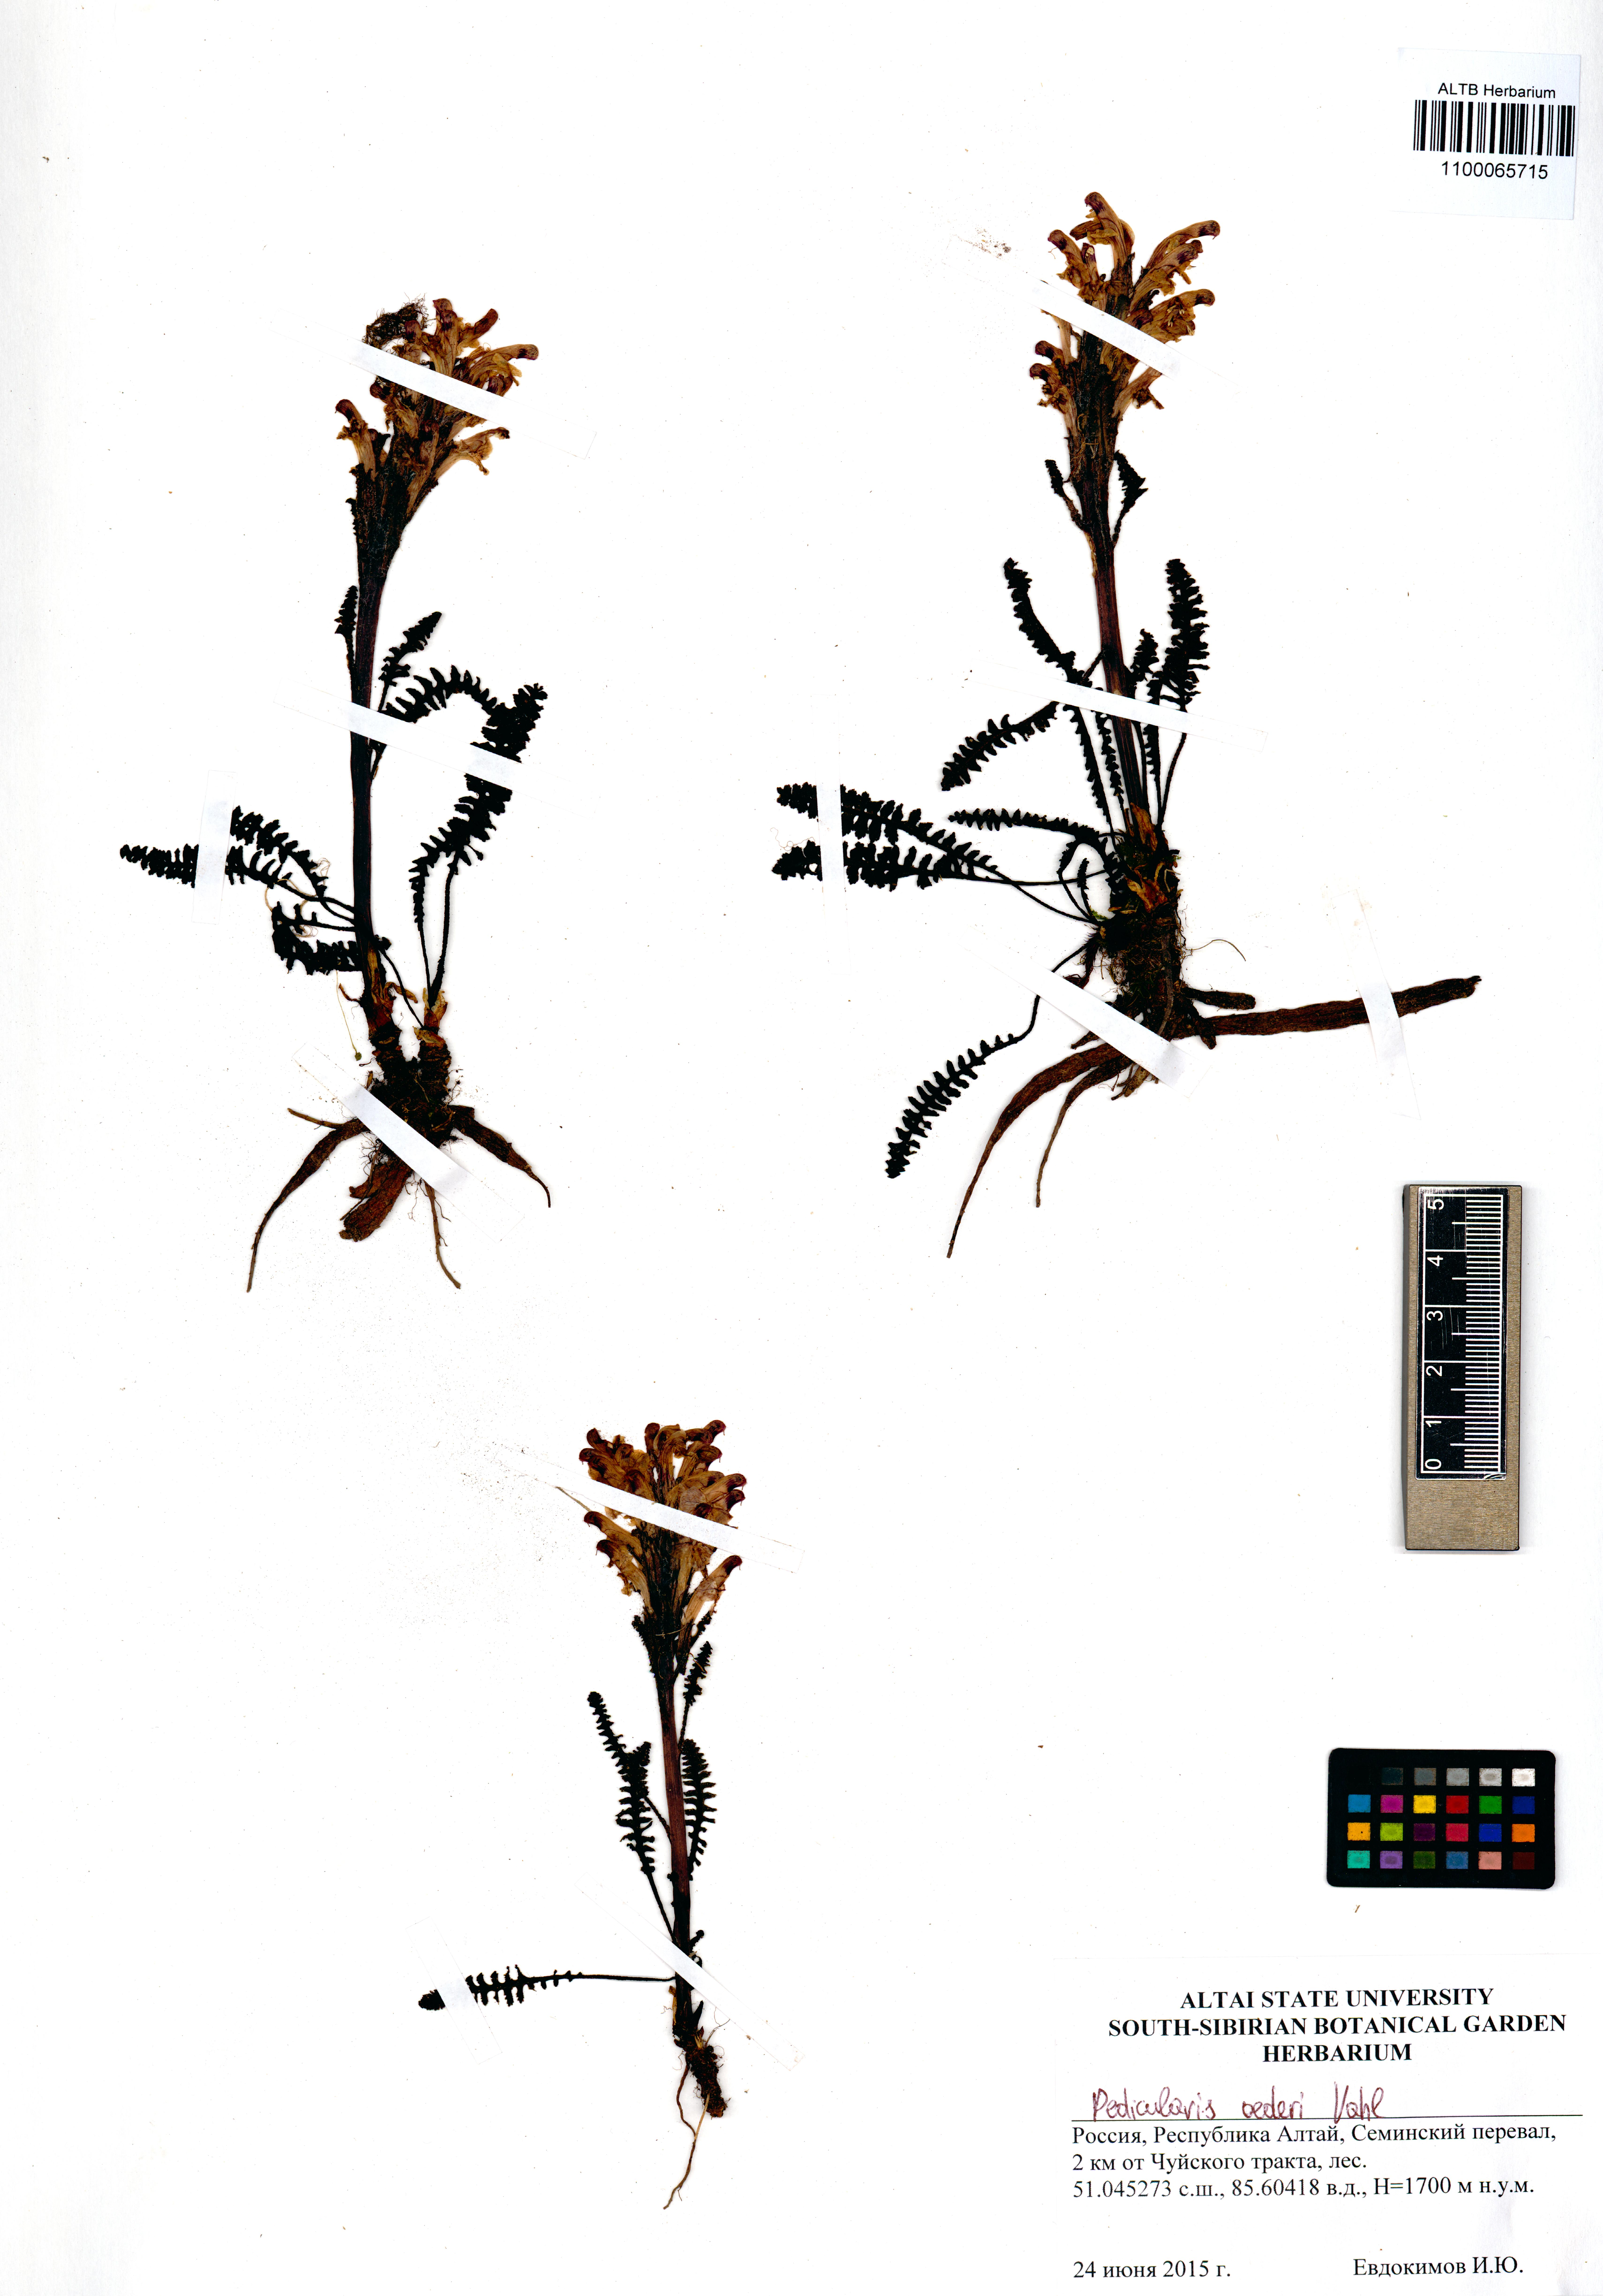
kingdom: Plantae
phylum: Tracheophyta
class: Magnoliopsida
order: Lamiales
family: Orobanchaceae
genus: Pedicularis
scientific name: Pedicularis oederi
